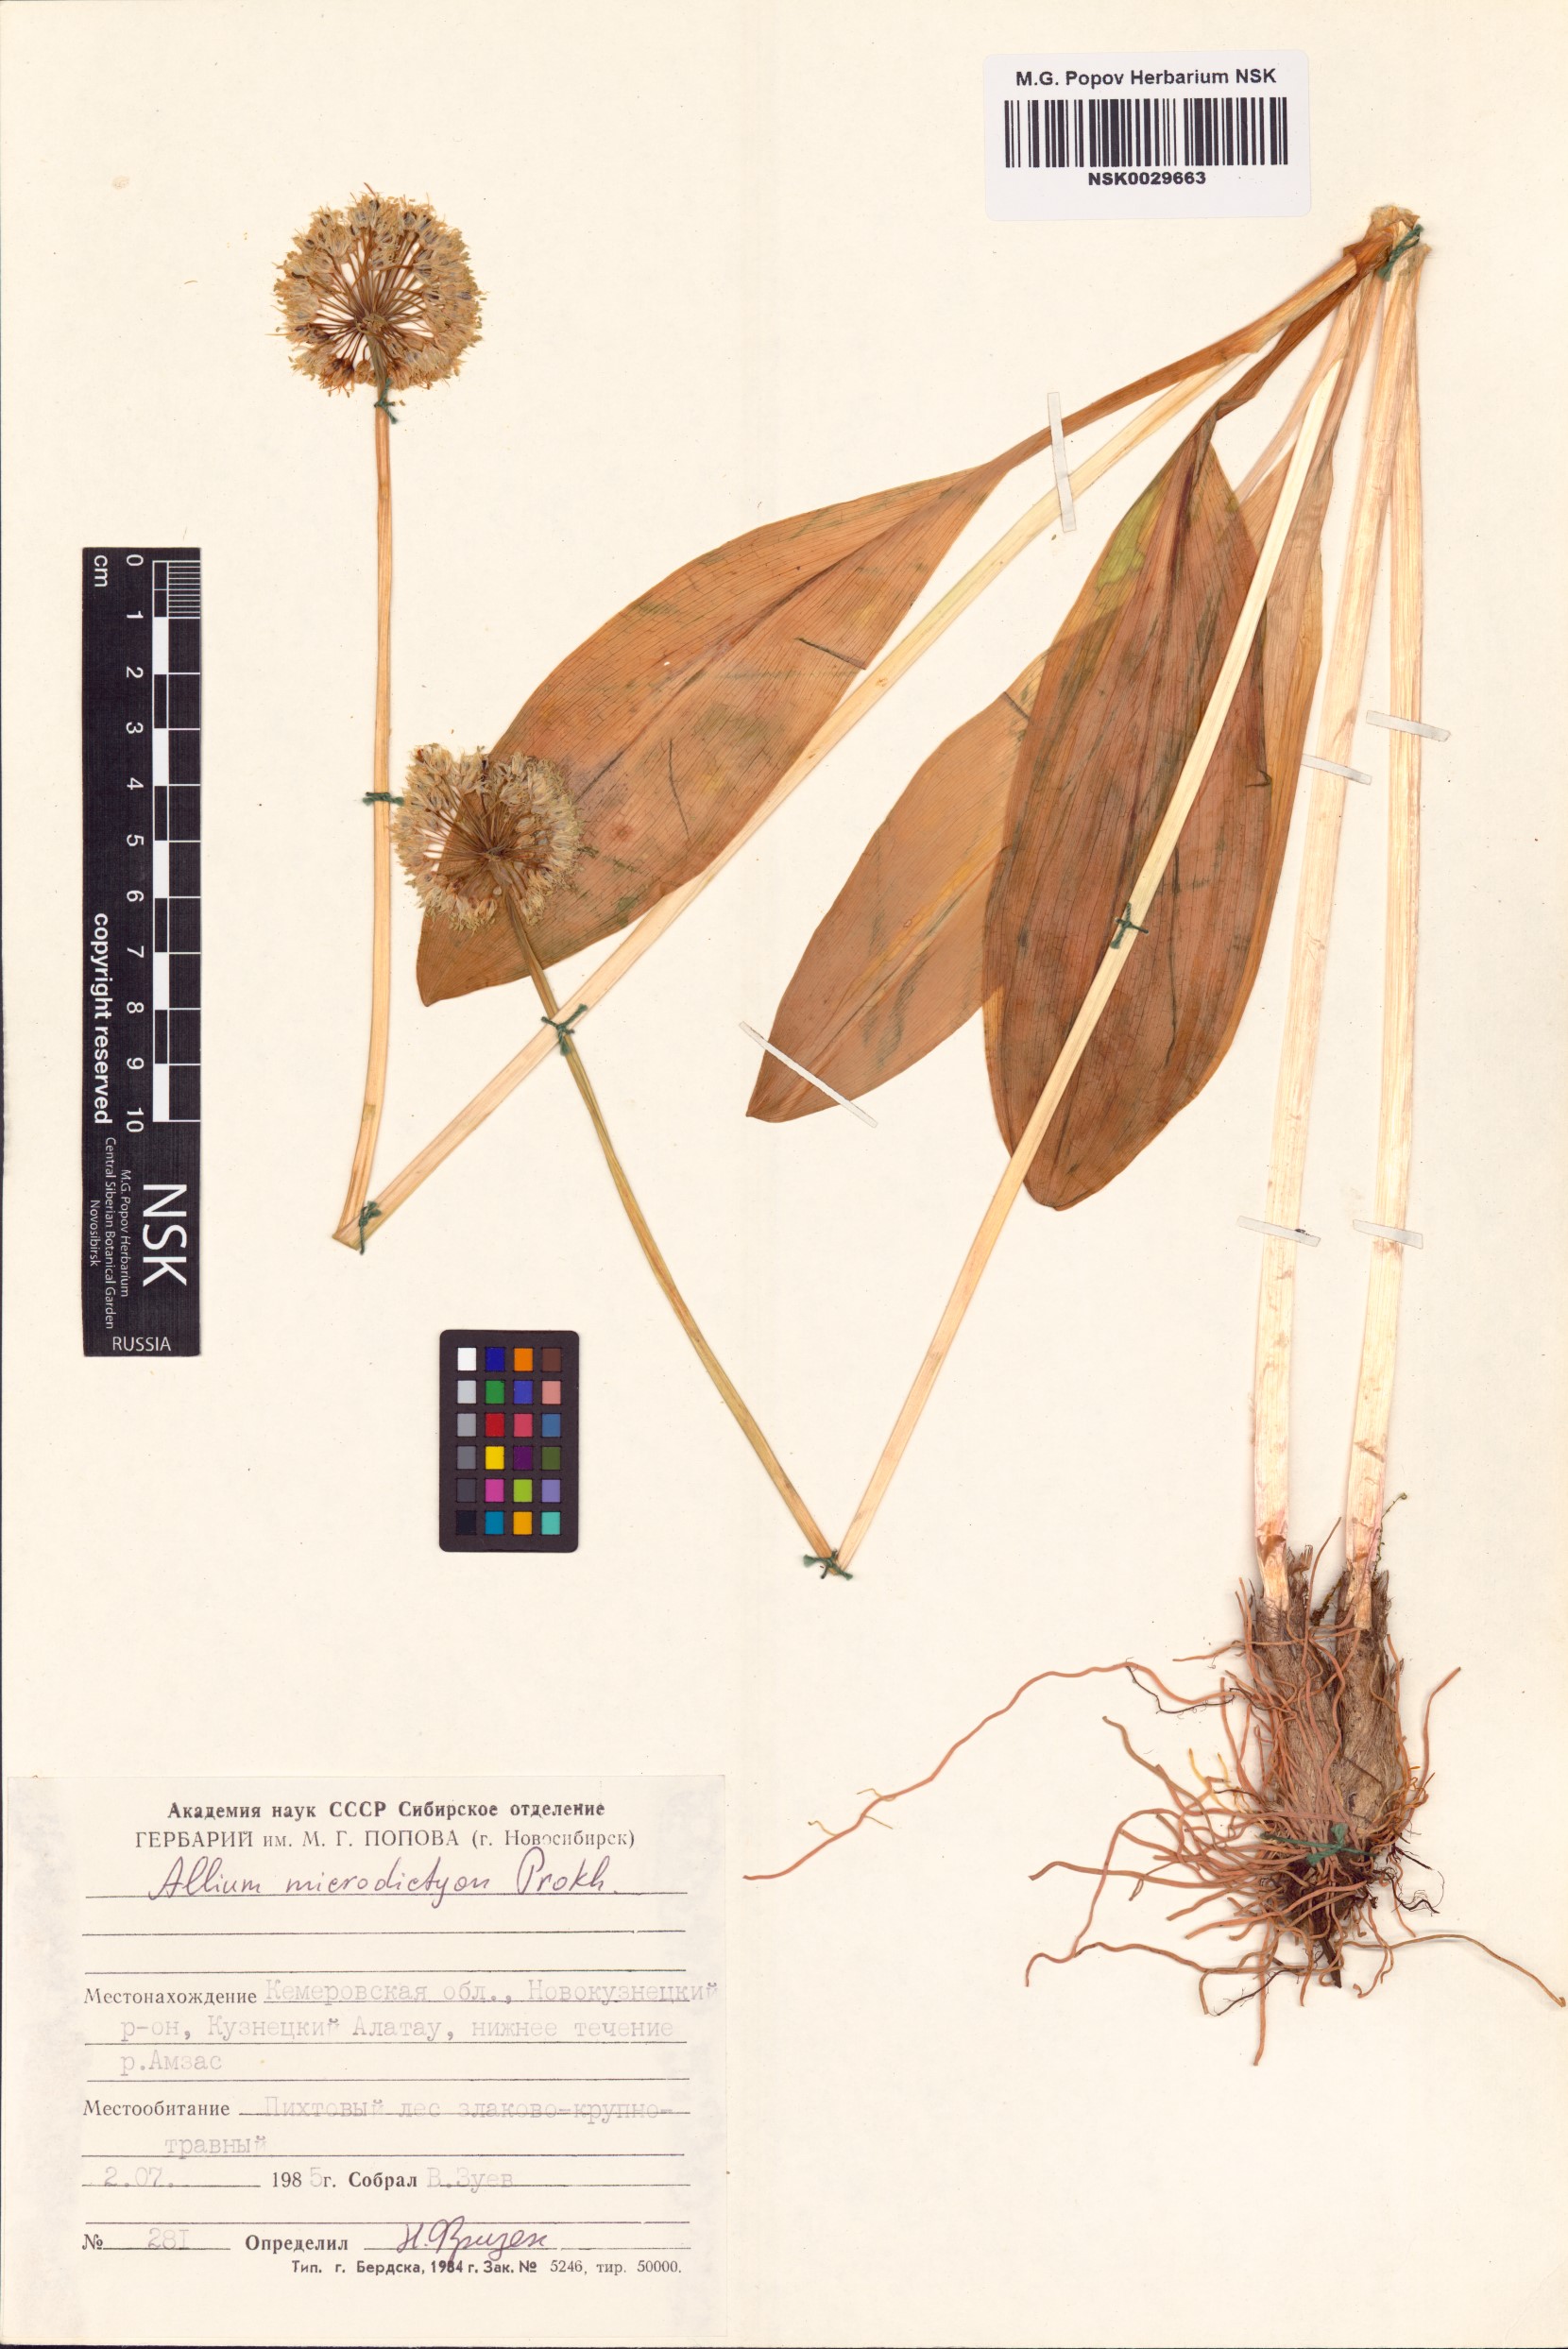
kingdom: Plantae
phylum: Tracheophyta
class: Liliopsida
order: Asparagales
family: Amaryllidaceae
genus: Allium
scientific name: Allium microdictyon
